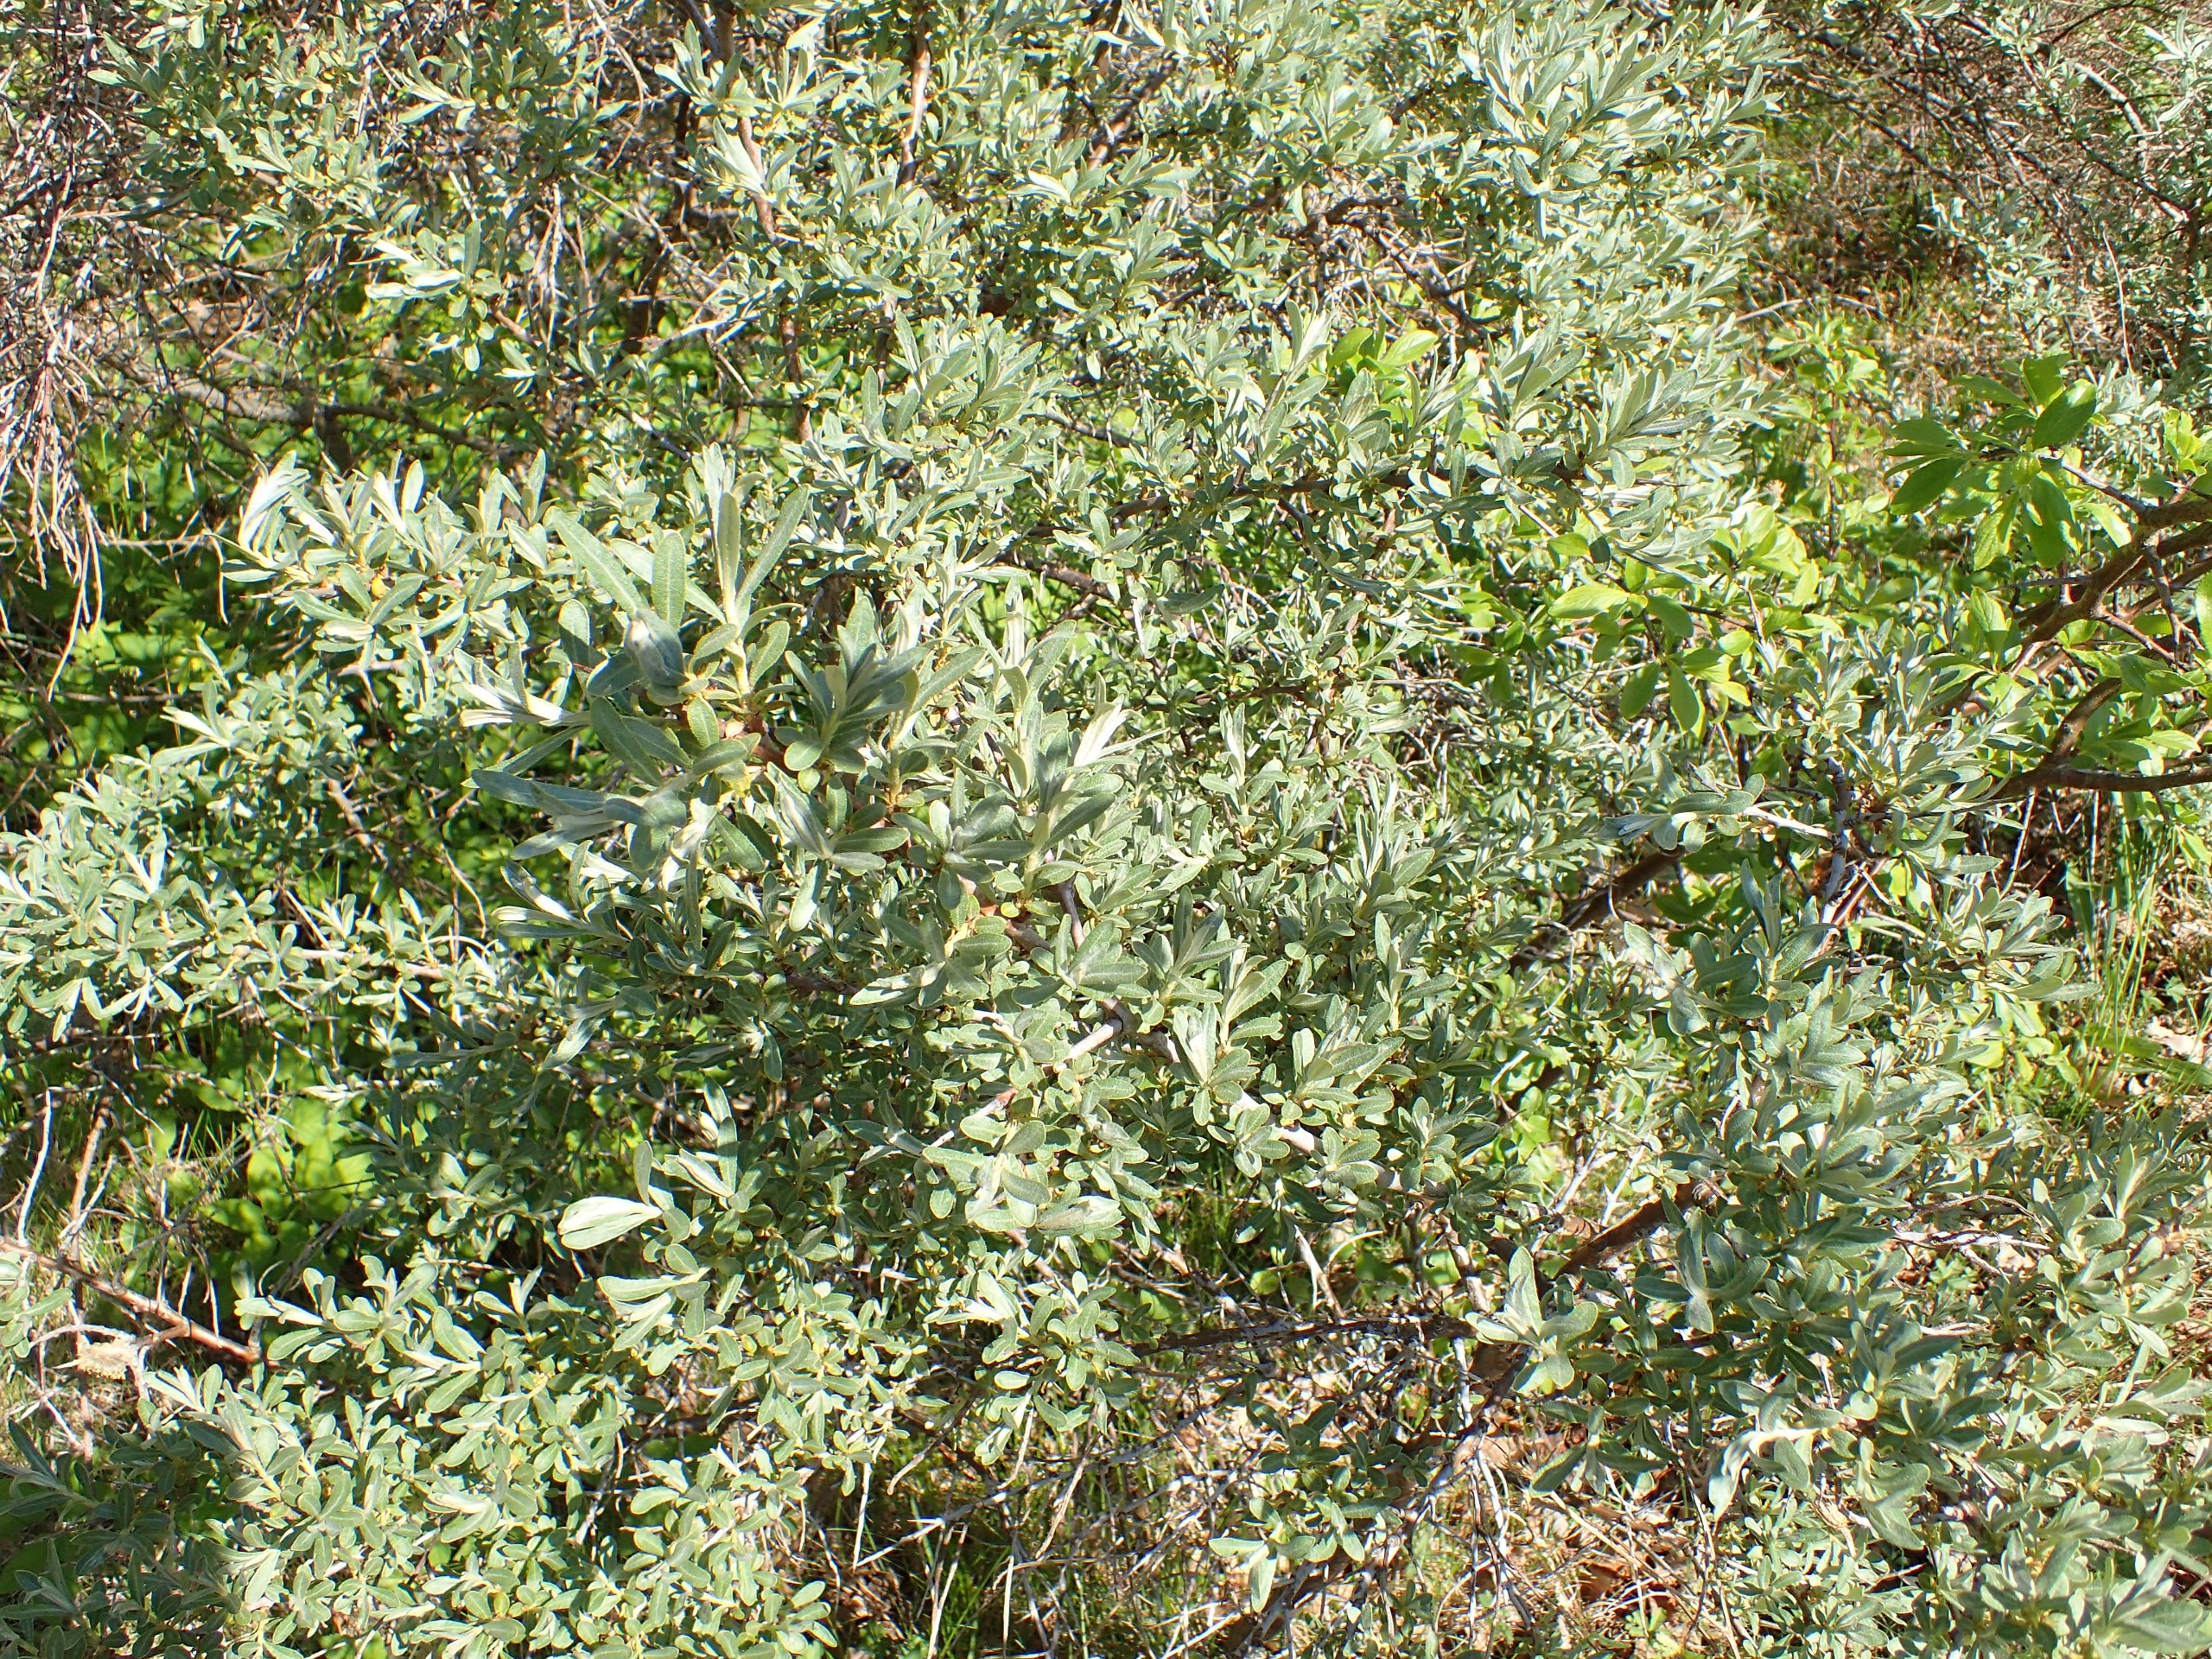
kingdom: Plantae
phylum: Tracheophyta
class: Magnoliopsida
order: Rosales
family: Elaeagnaceae
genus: Hippophae
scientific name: Hippophae rhamnoides
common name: Havtorn
